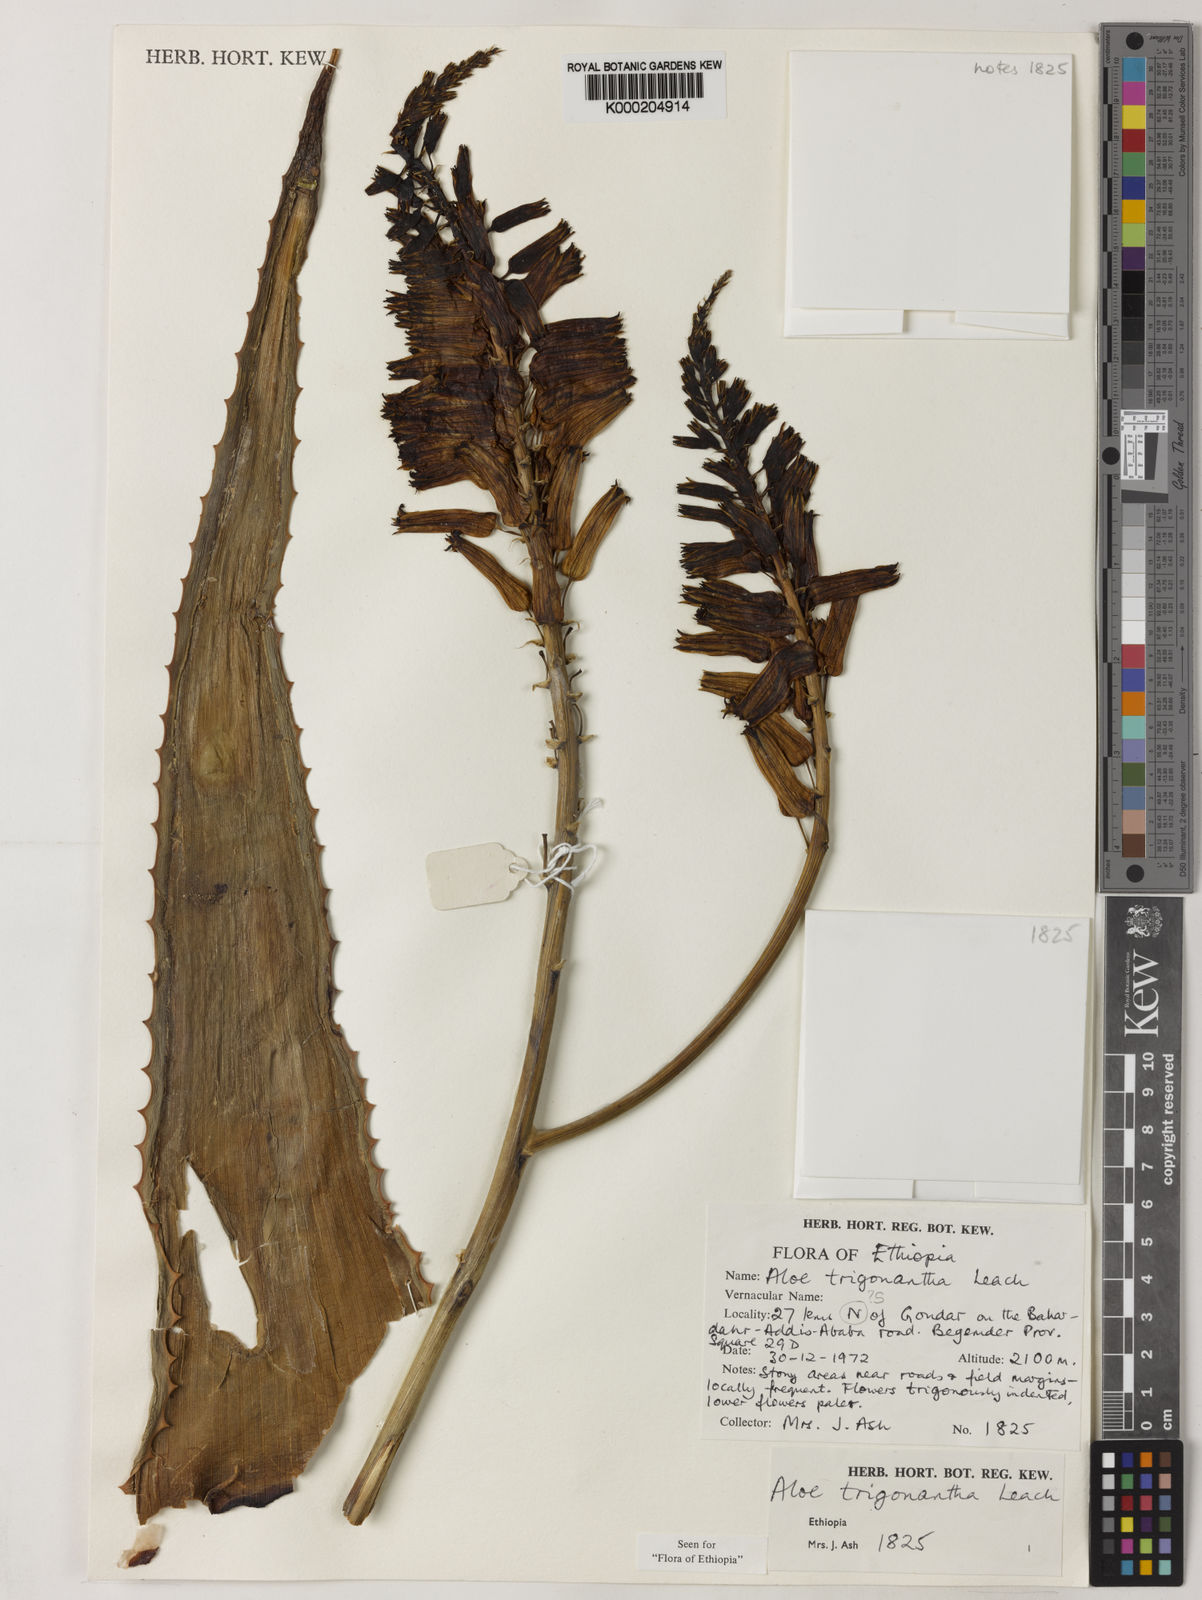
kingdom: Plantae
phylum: Tracheophyta
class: Liliopsida
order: Asparagales
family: Asphodelaceae
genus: Aloe
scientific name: Aloe trigonantha
